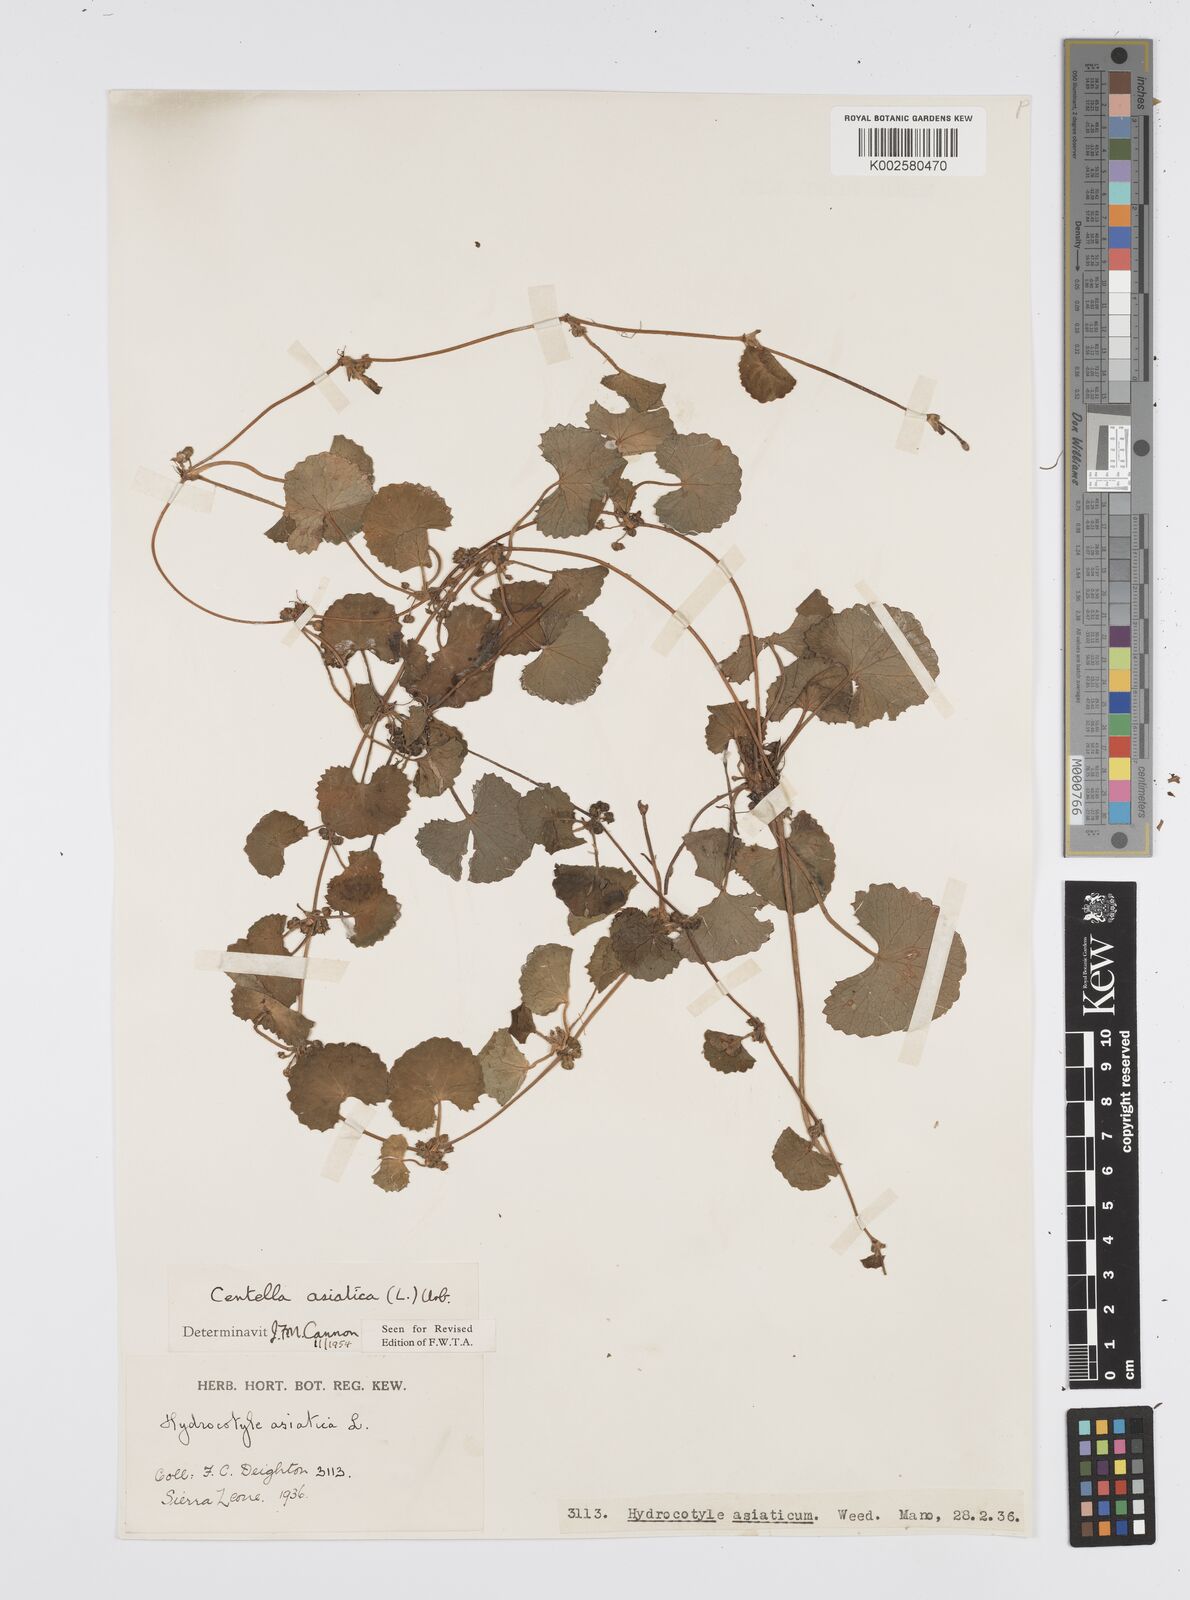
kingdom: Plantae
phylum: Tracheophyta
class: Magnoliopsida
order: Apiales
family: Apiaceae
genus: Centella
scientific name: Centella asiatica
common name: Spadeleaf
